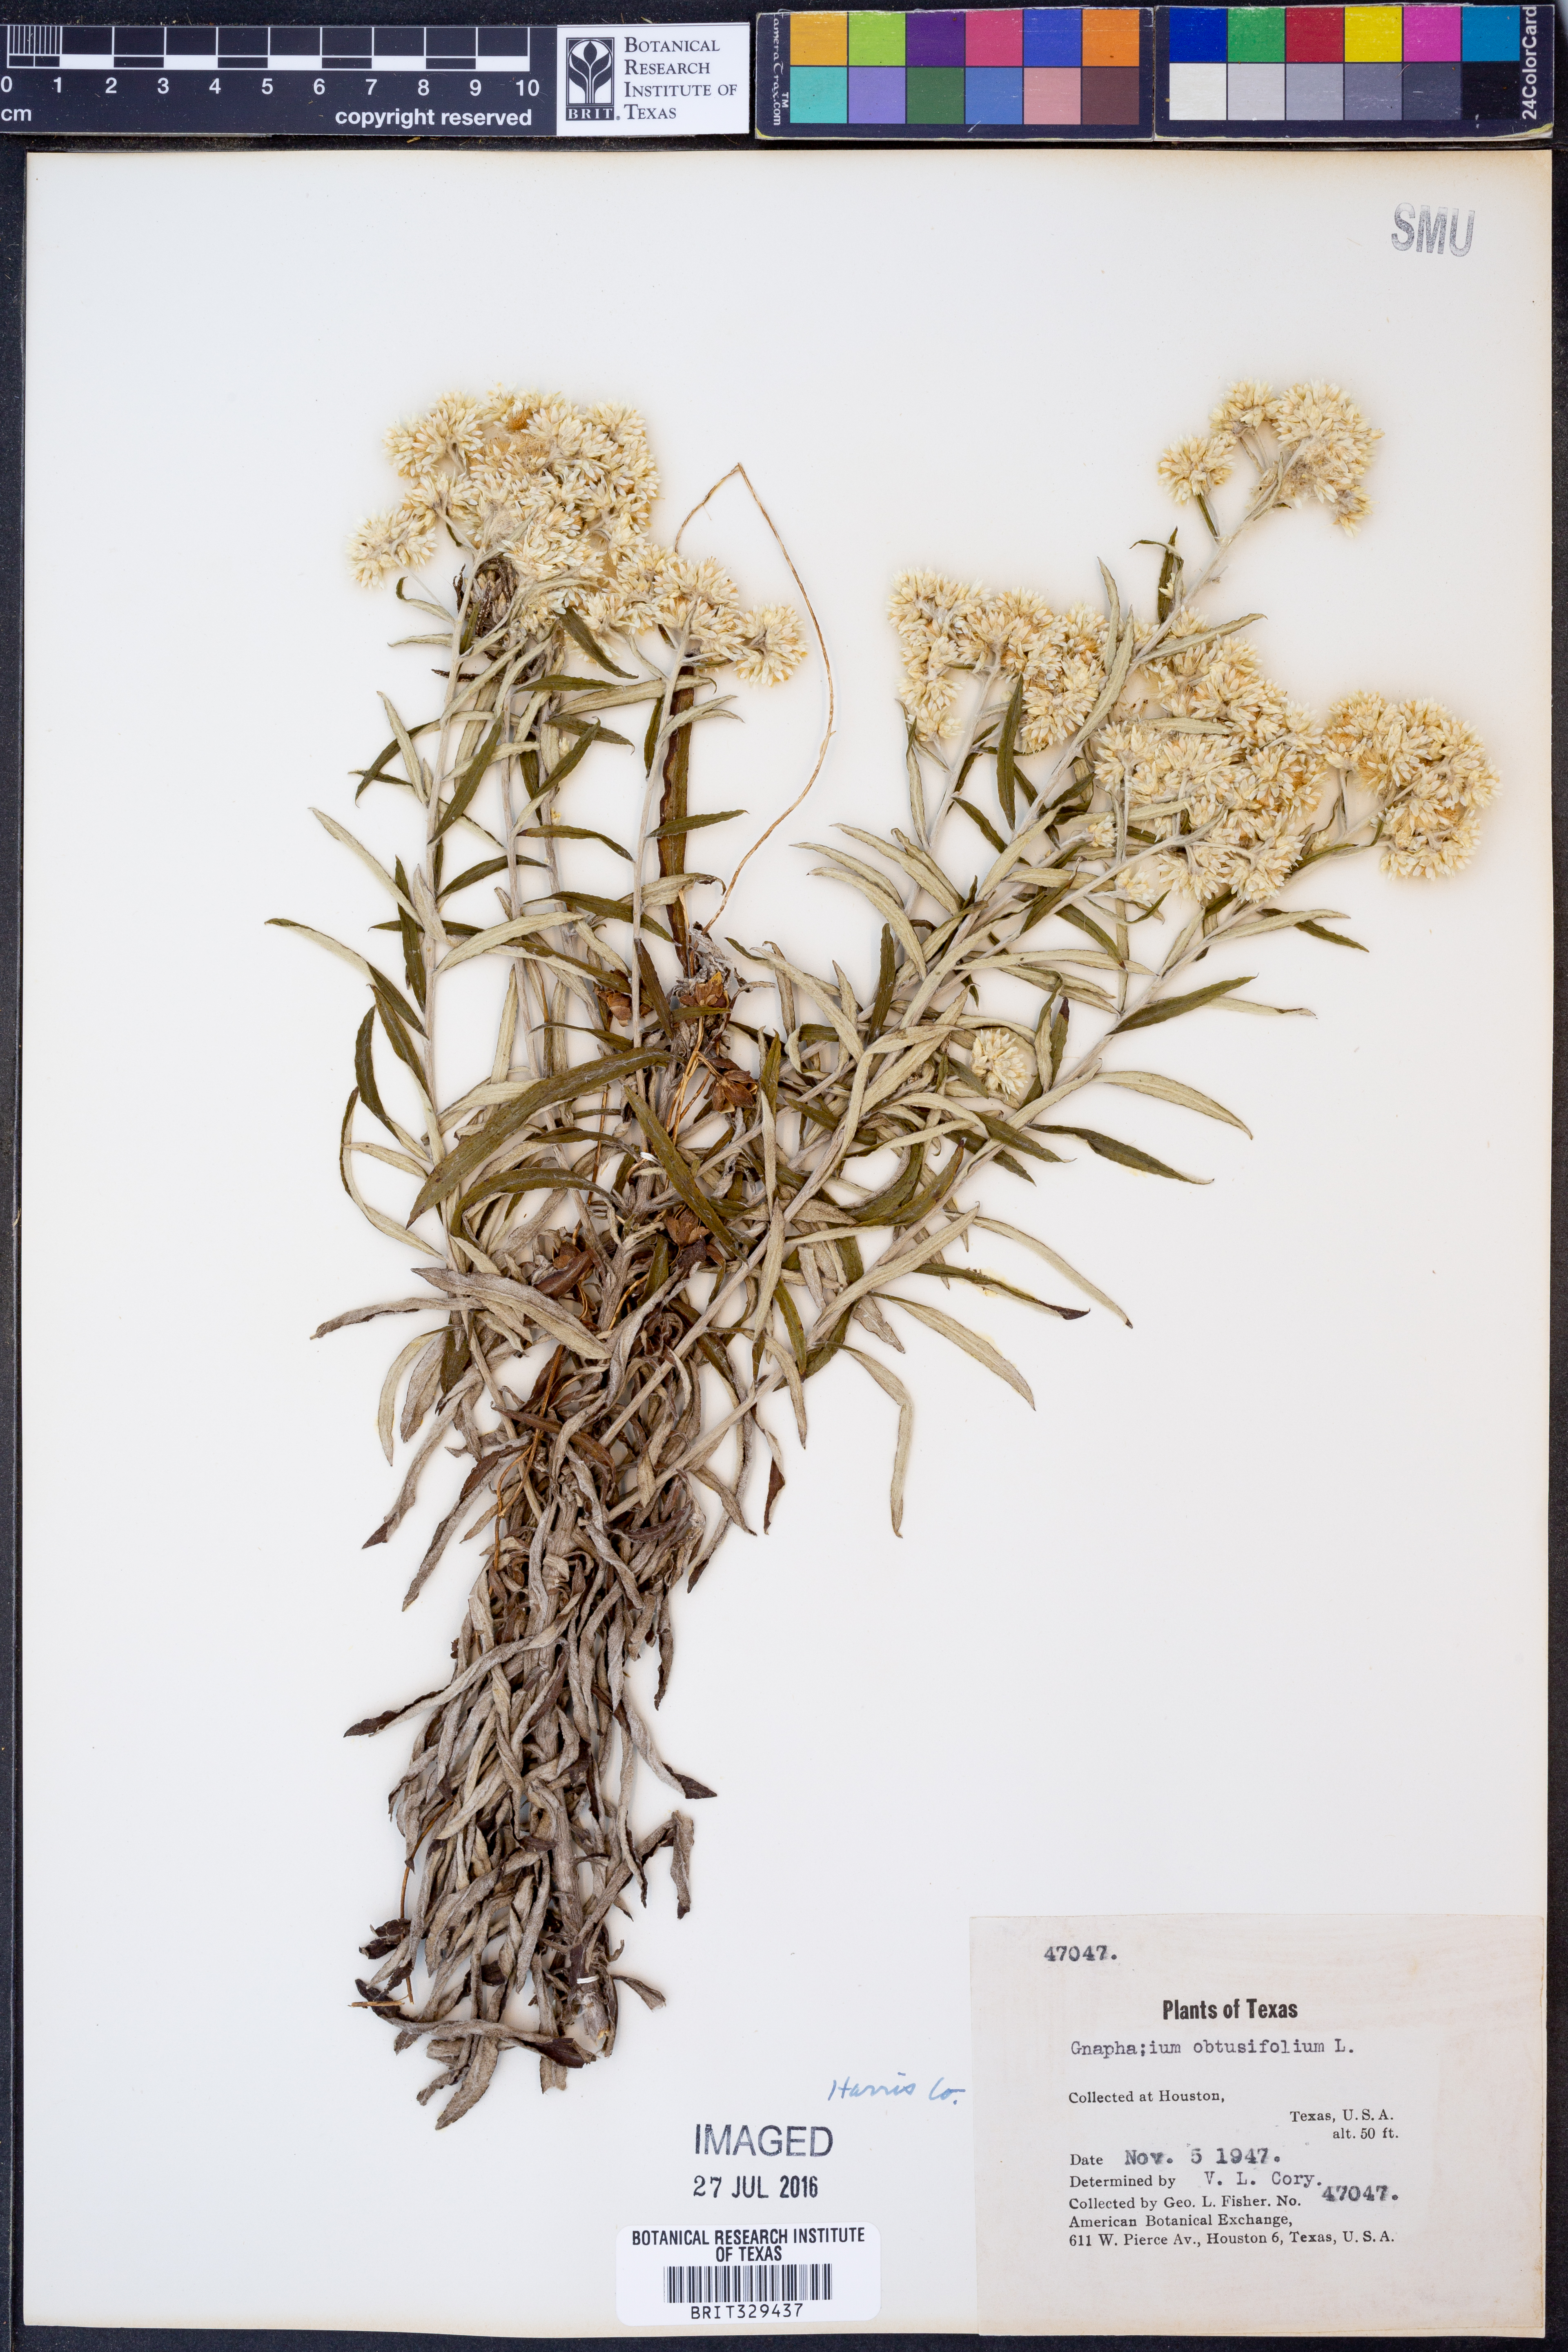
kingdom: Plantae
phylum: Tracheophyta
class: Magnoliopsida
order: Asterales
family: Asteraceae
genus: Pseudognaphalium
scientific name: Pseudognaphalium obtusifolium
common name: Eastern rabbit-tobacco
